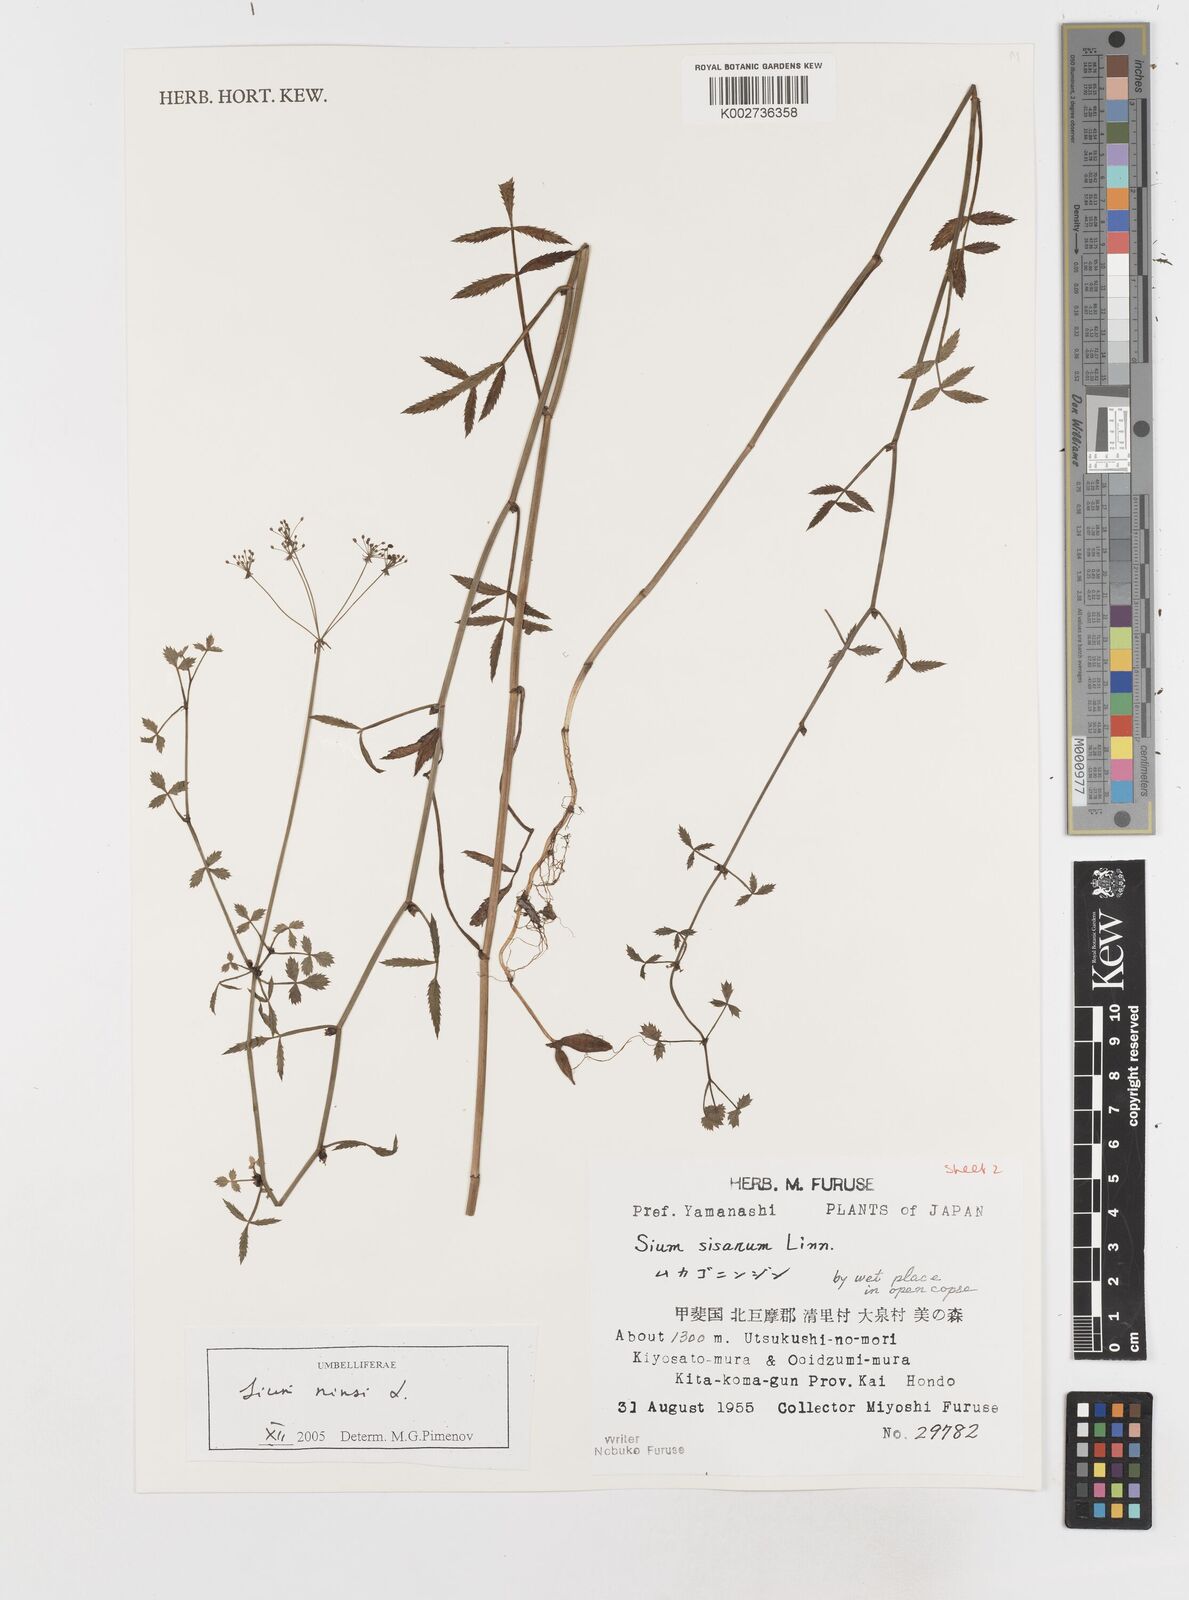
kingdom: Plantae
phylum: Tracheophyta
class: Magnoliopsida
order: Apiales
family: Apiaceae
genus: Sium
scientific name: Sium ninsi
